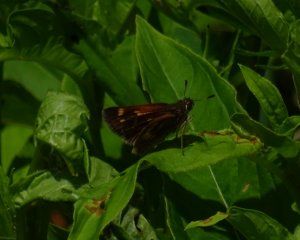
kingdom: Animalia
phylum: Arthropoda
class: Insecta
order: Lepidoptera
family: Hesperiidae
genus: Polites
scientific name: Polites themistocles
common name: Tawny-edged Skipper
